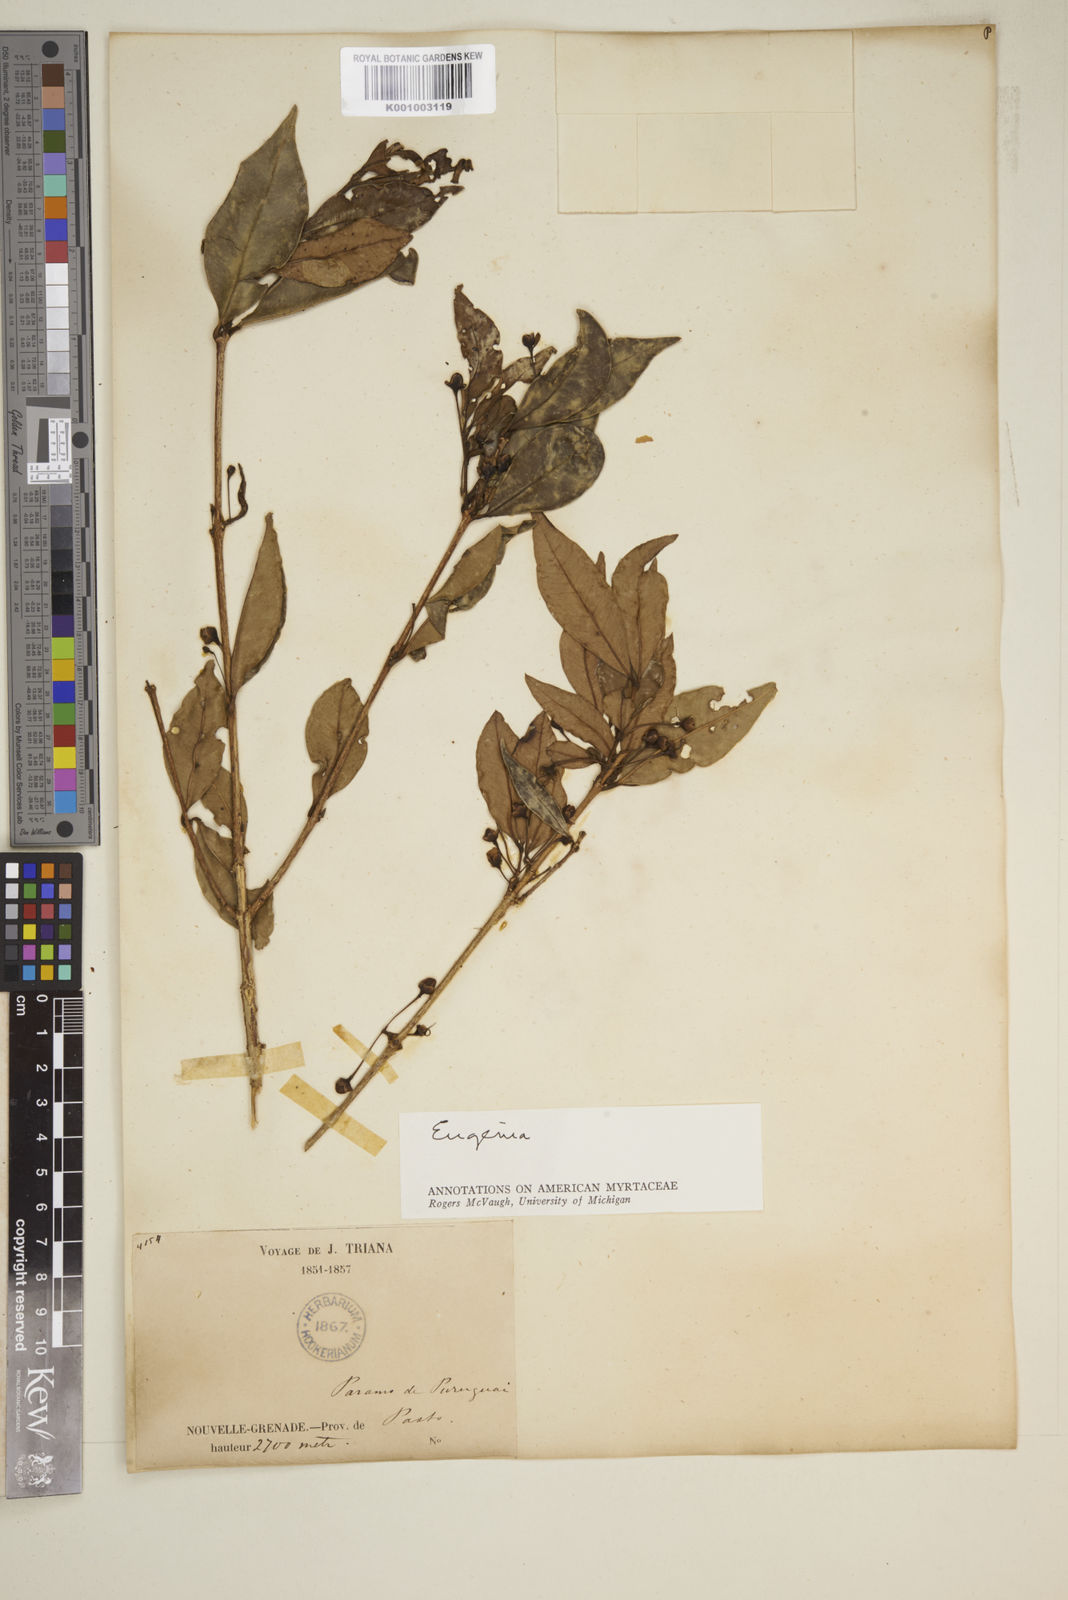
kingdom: Plantae
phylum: Tracheophyta
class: Magnoliopsida
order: Myrtales
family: Myrtaceae
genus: Eugenia
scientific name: Eugenia
